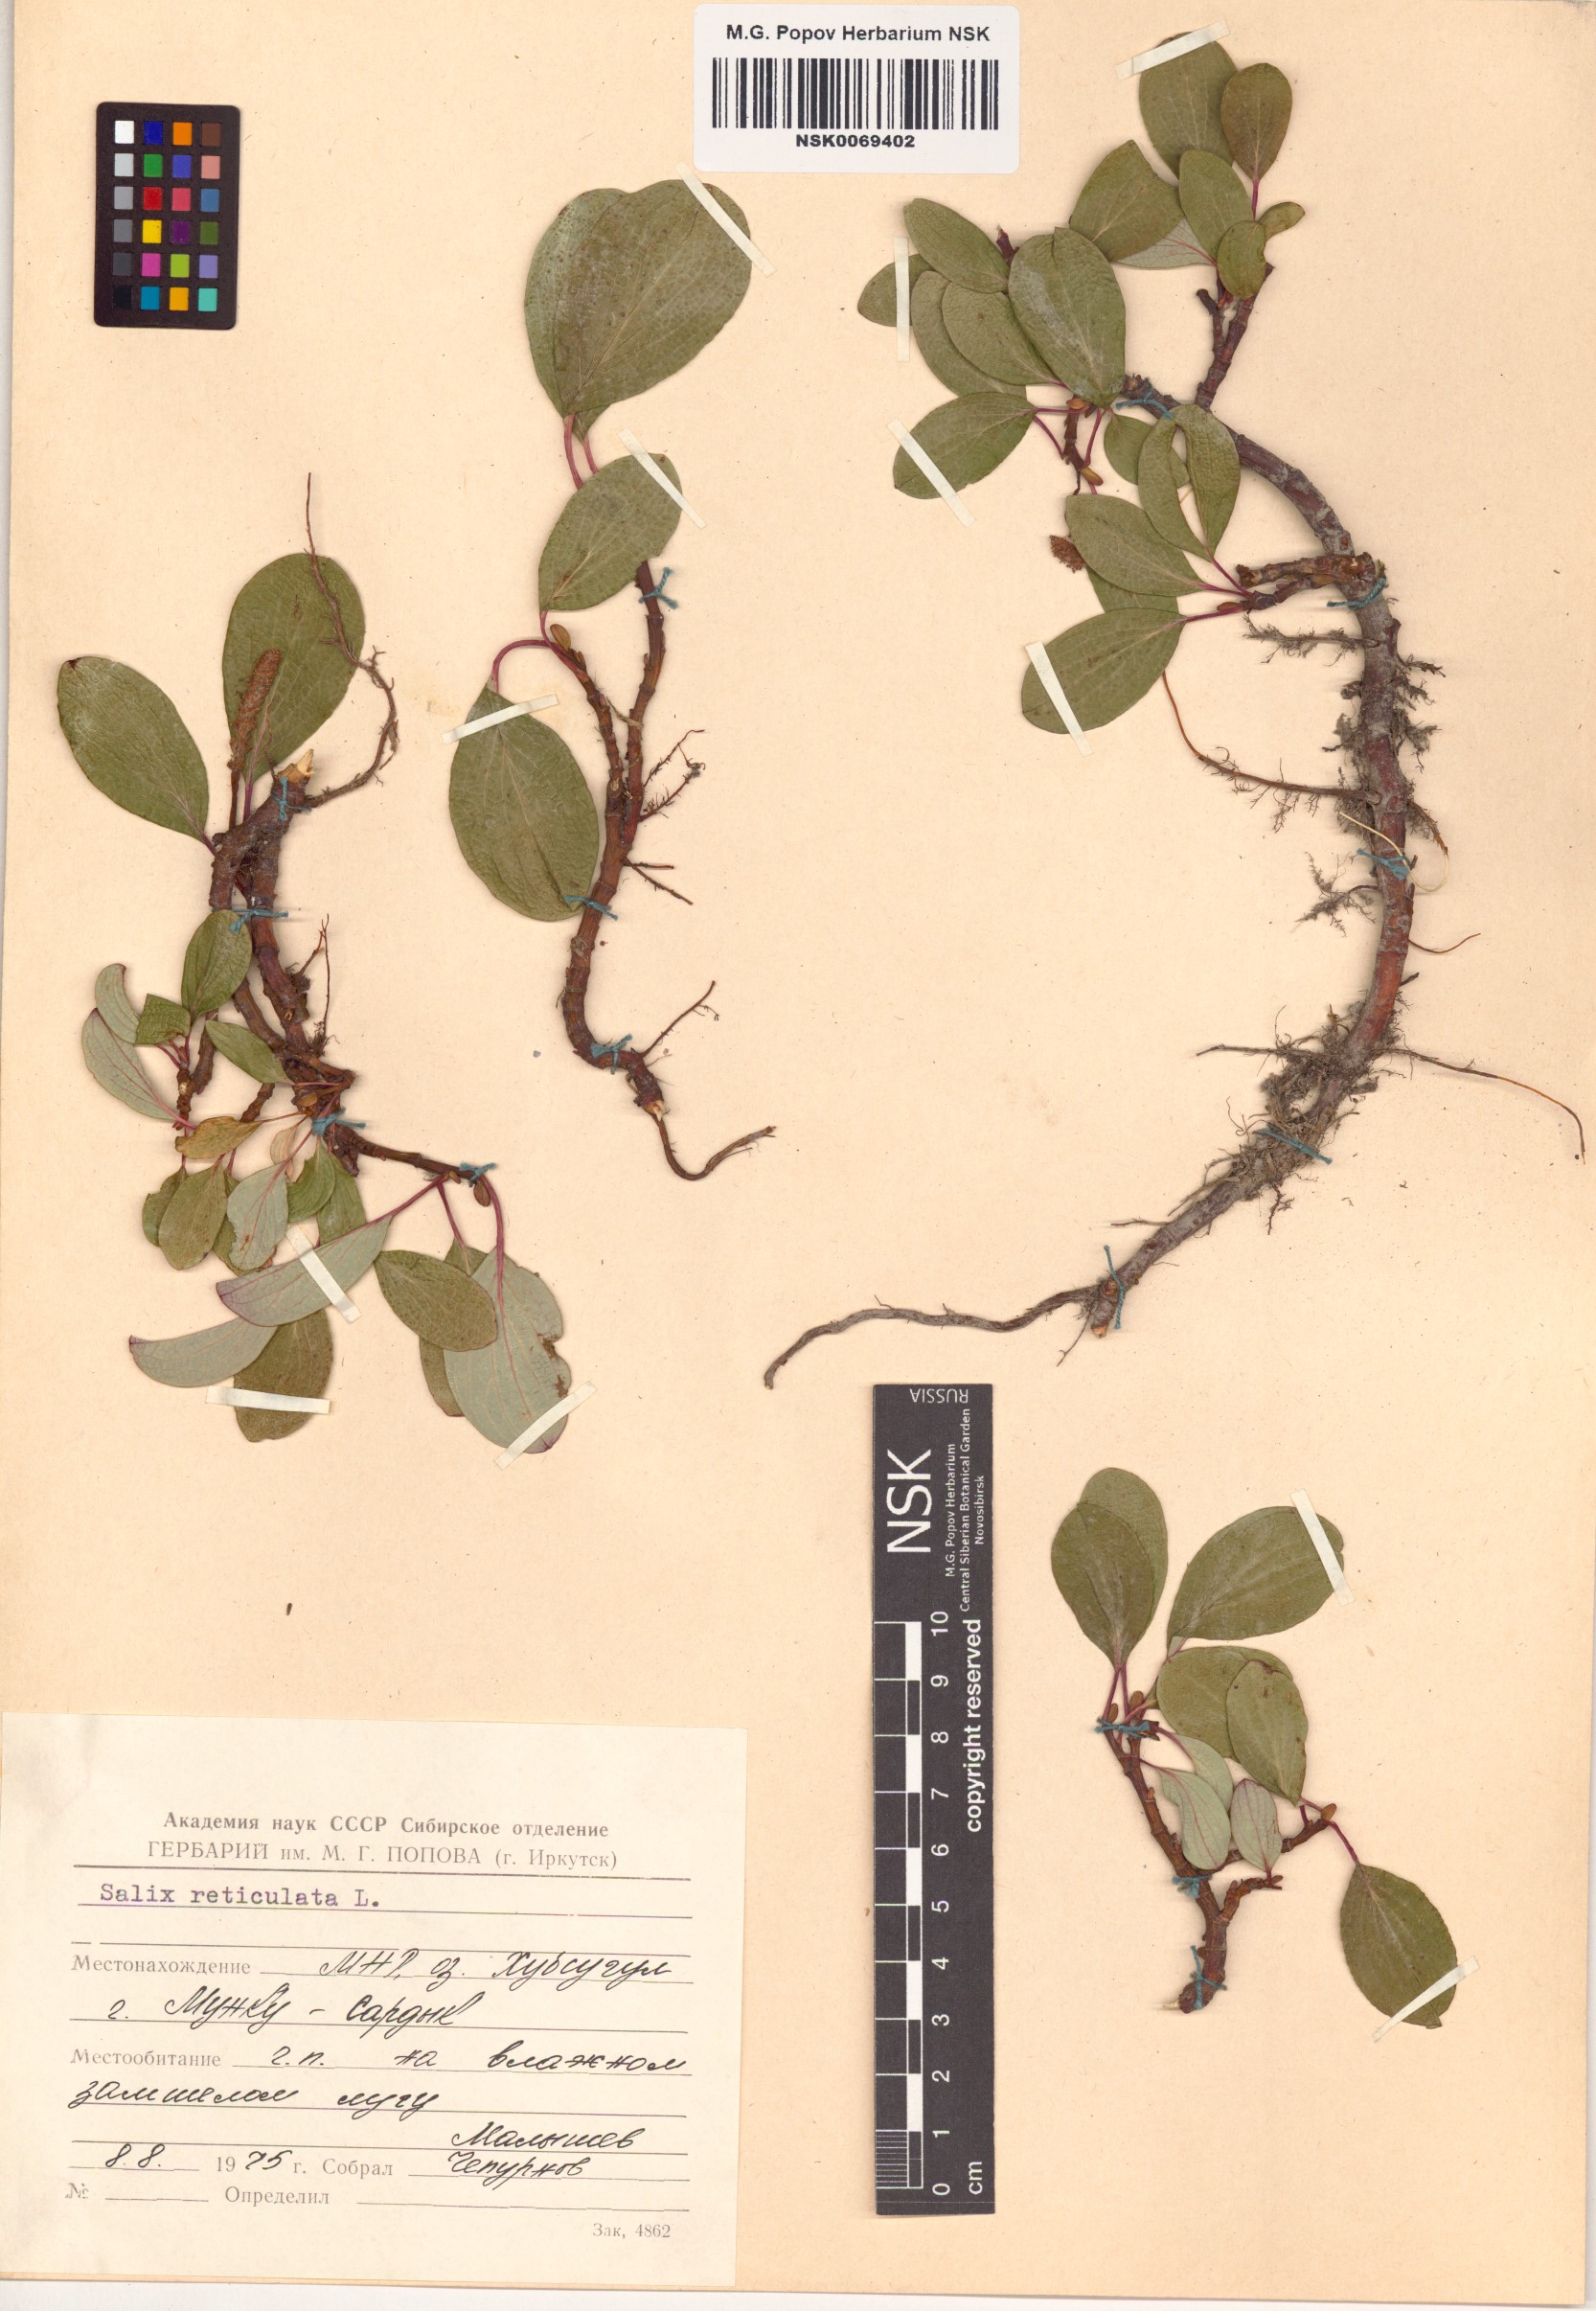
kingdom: Plantae
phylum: Tracheophyta
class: Magnoliopsida
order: Malpighiales
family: Salicaceae
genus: Salix
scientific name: Salix reticulata
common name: Net-leaved willow
